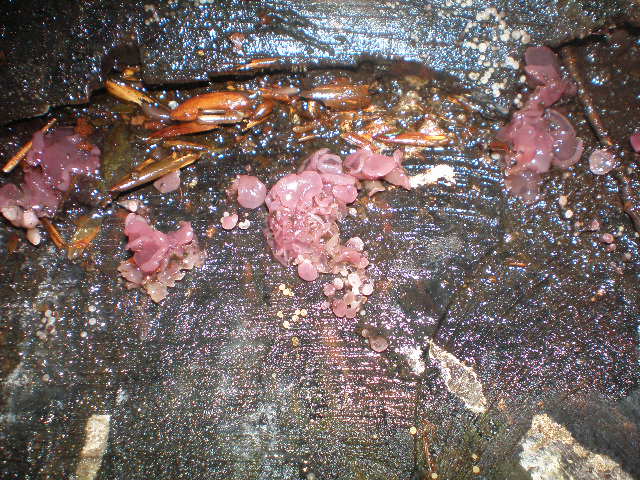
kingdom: Fungi
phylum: Ascomycota
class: Leotiomycetes
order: Helotiales
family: Gelatinodiscaceae
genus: Ascocoryne
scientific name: Ascocoryne sarcoides
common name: rødlilla sejskive
